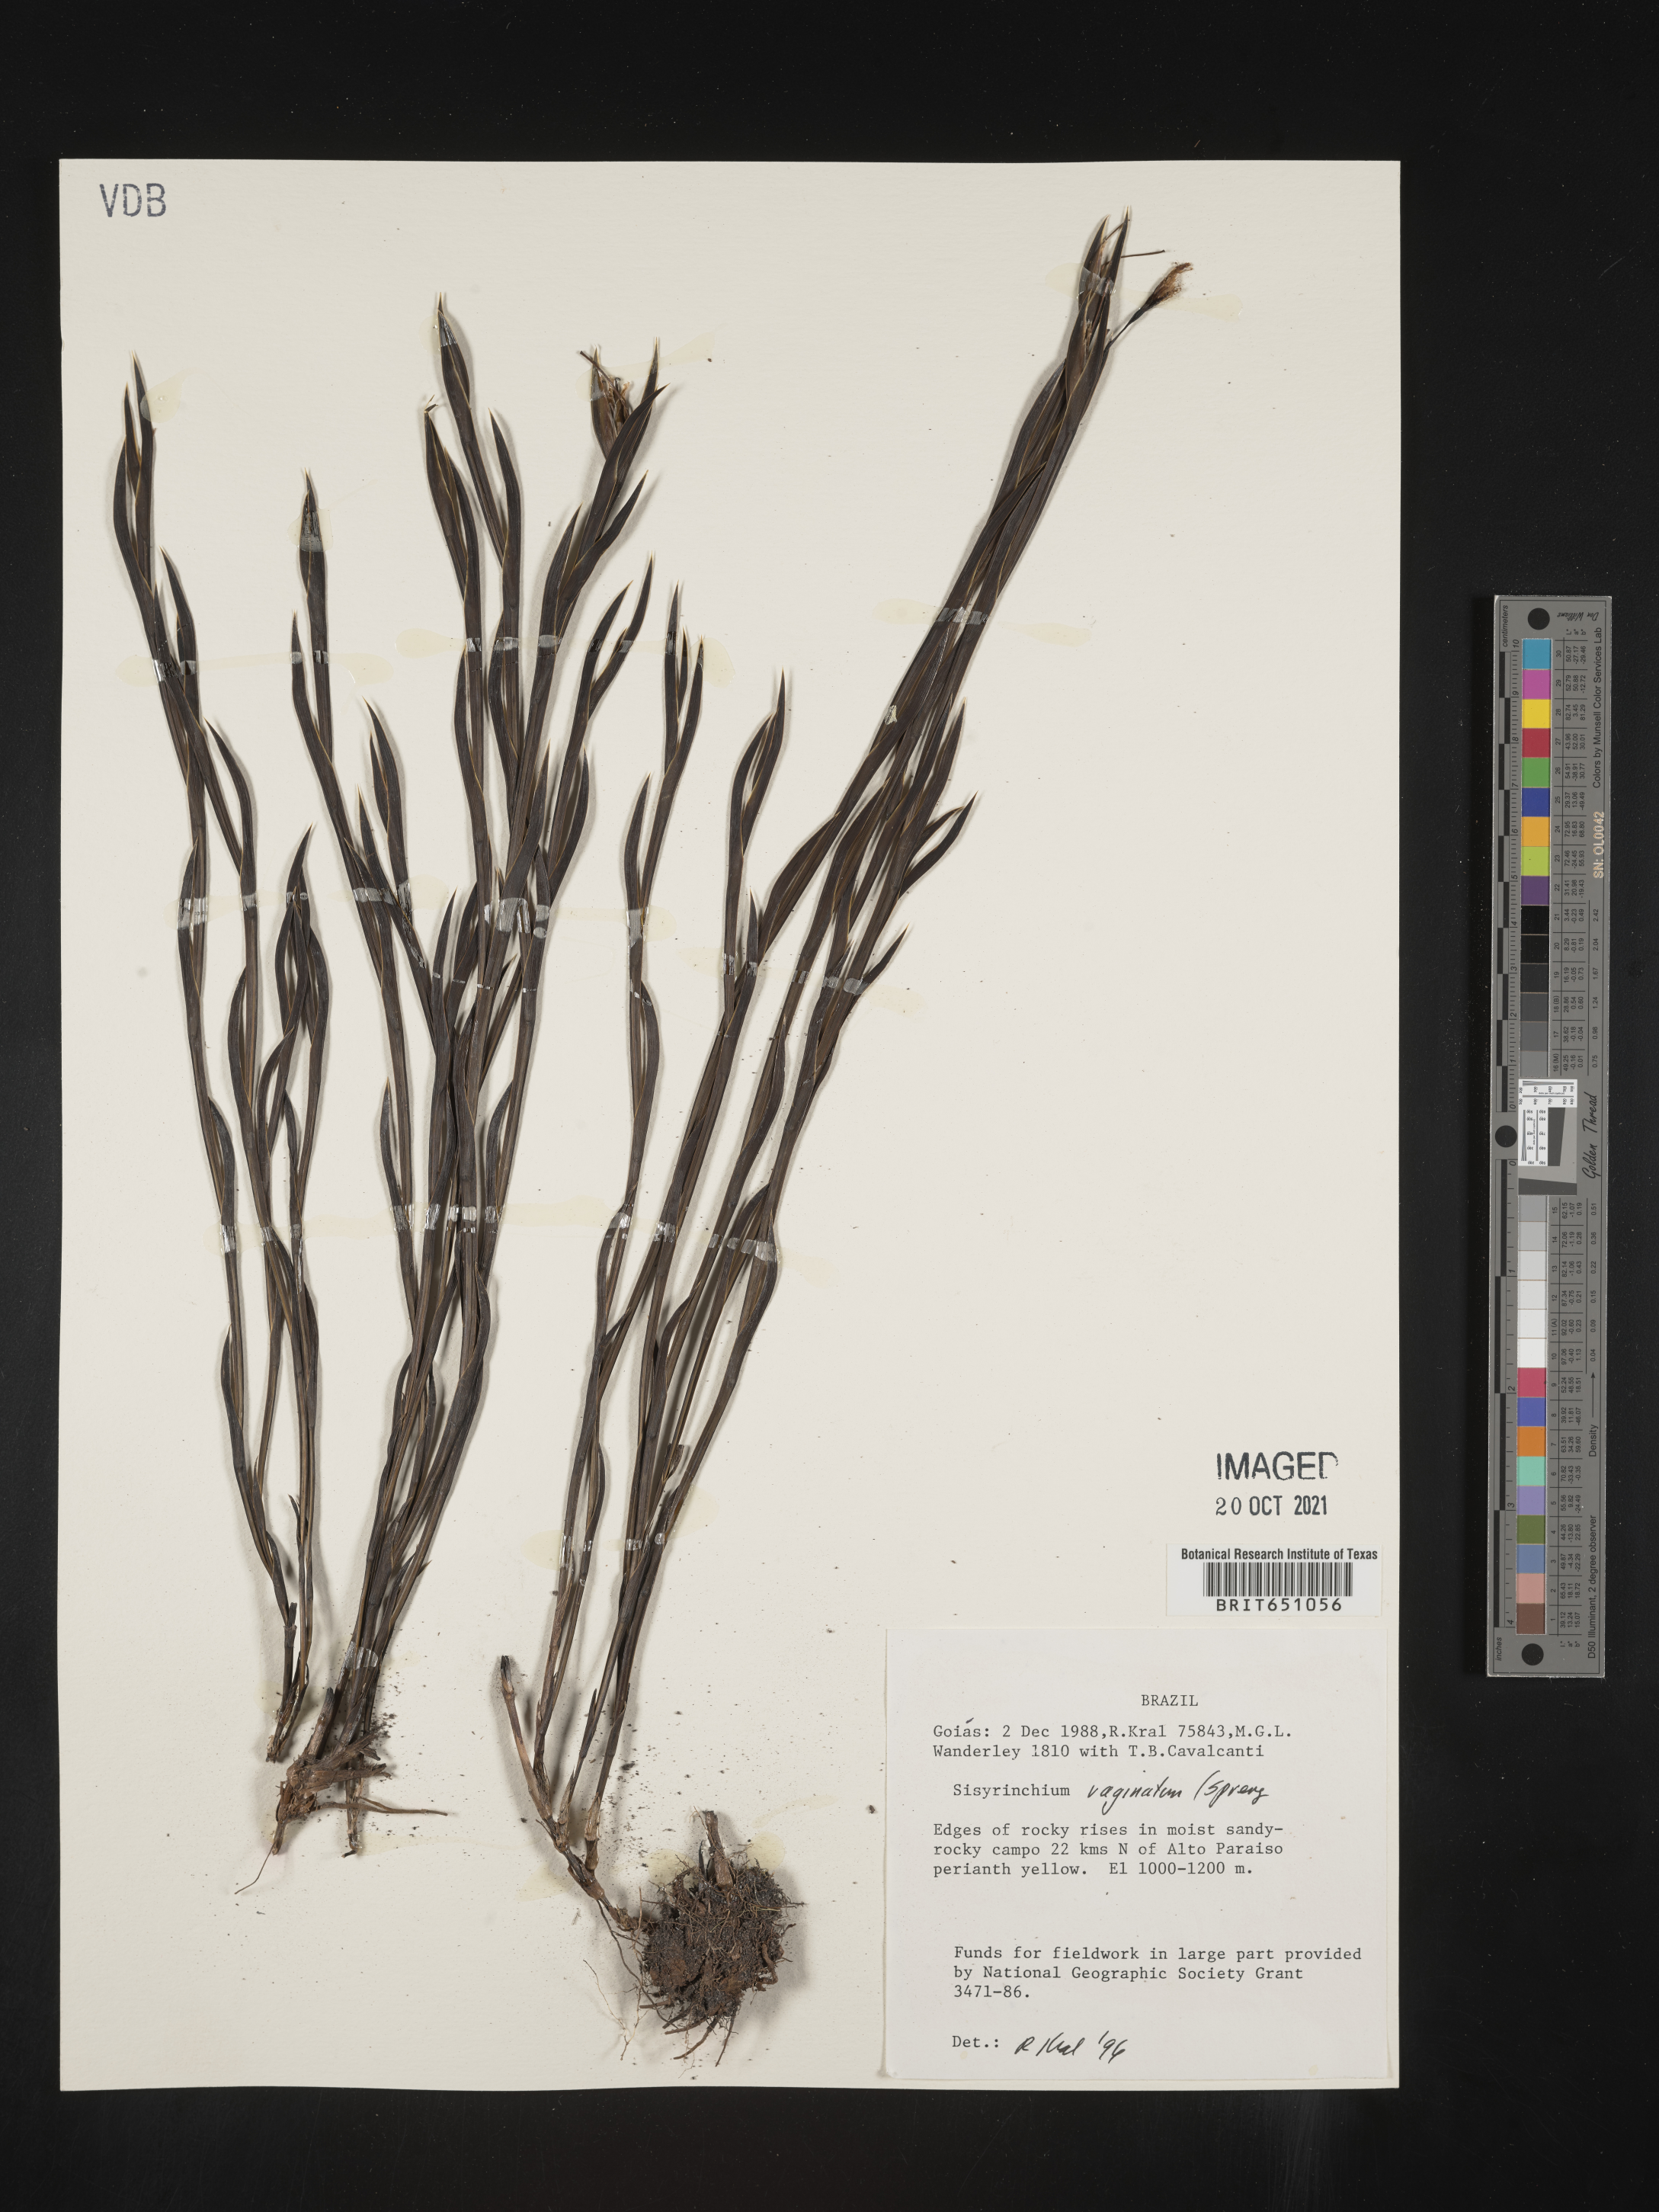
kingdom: Plantae
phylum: Tracheophyta
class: Liliopsida
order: Asparagales
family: Iridaceae
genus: Sisyrinchium
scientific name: Sisyrinchium
